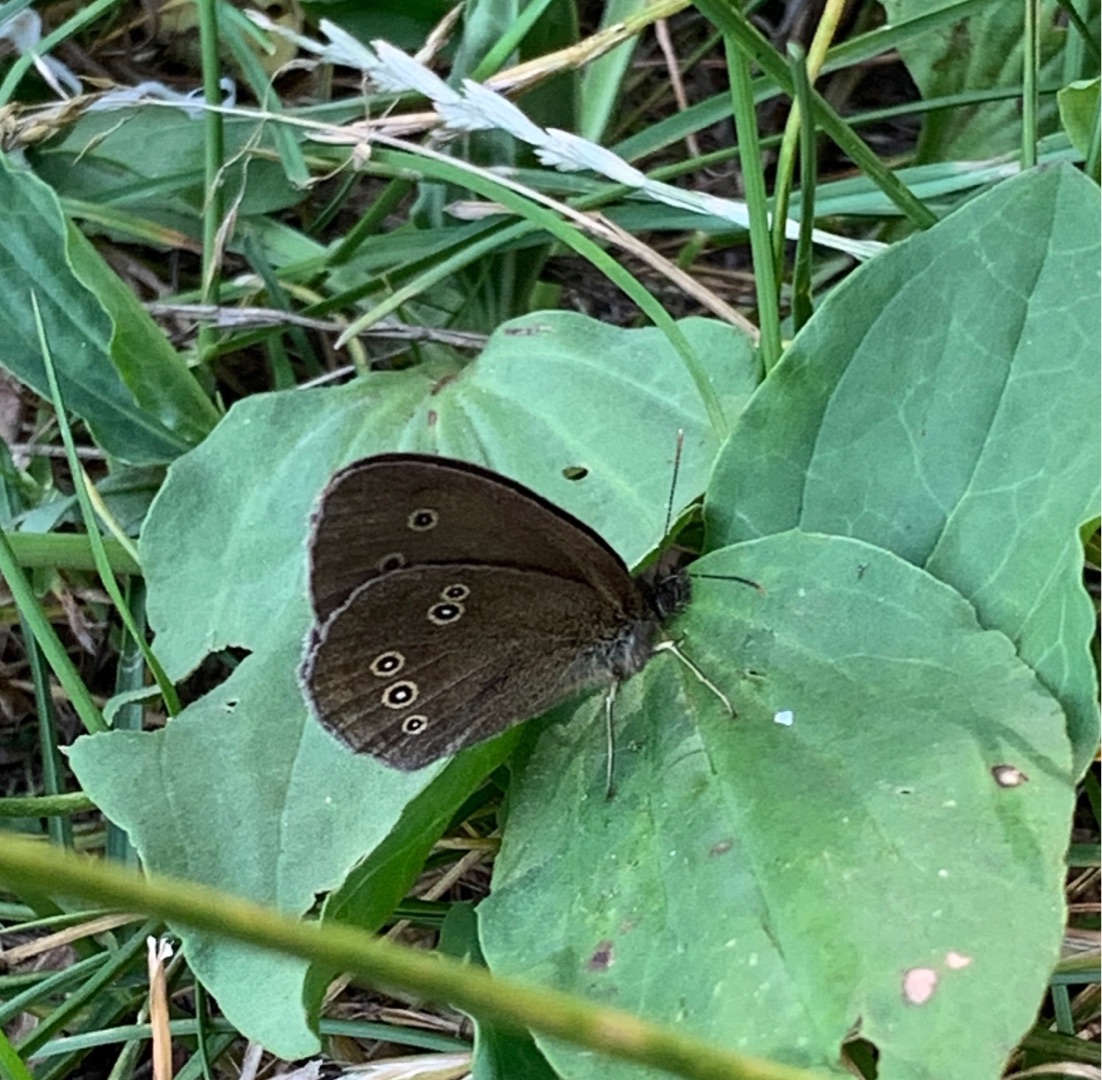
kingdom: Animalia
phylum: Arthropoda
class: Insecta
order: Lepidoptera
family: Nymphalidae
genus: Aphantopus
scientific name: Aphantopus hyperantus
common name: Engrandøje
